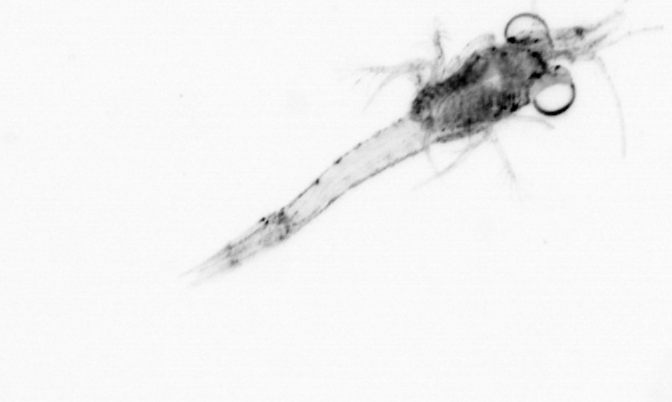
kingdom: Animalia
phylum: Arthropoda
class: Malacostraca
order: Decapoda
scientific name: Decapoda
